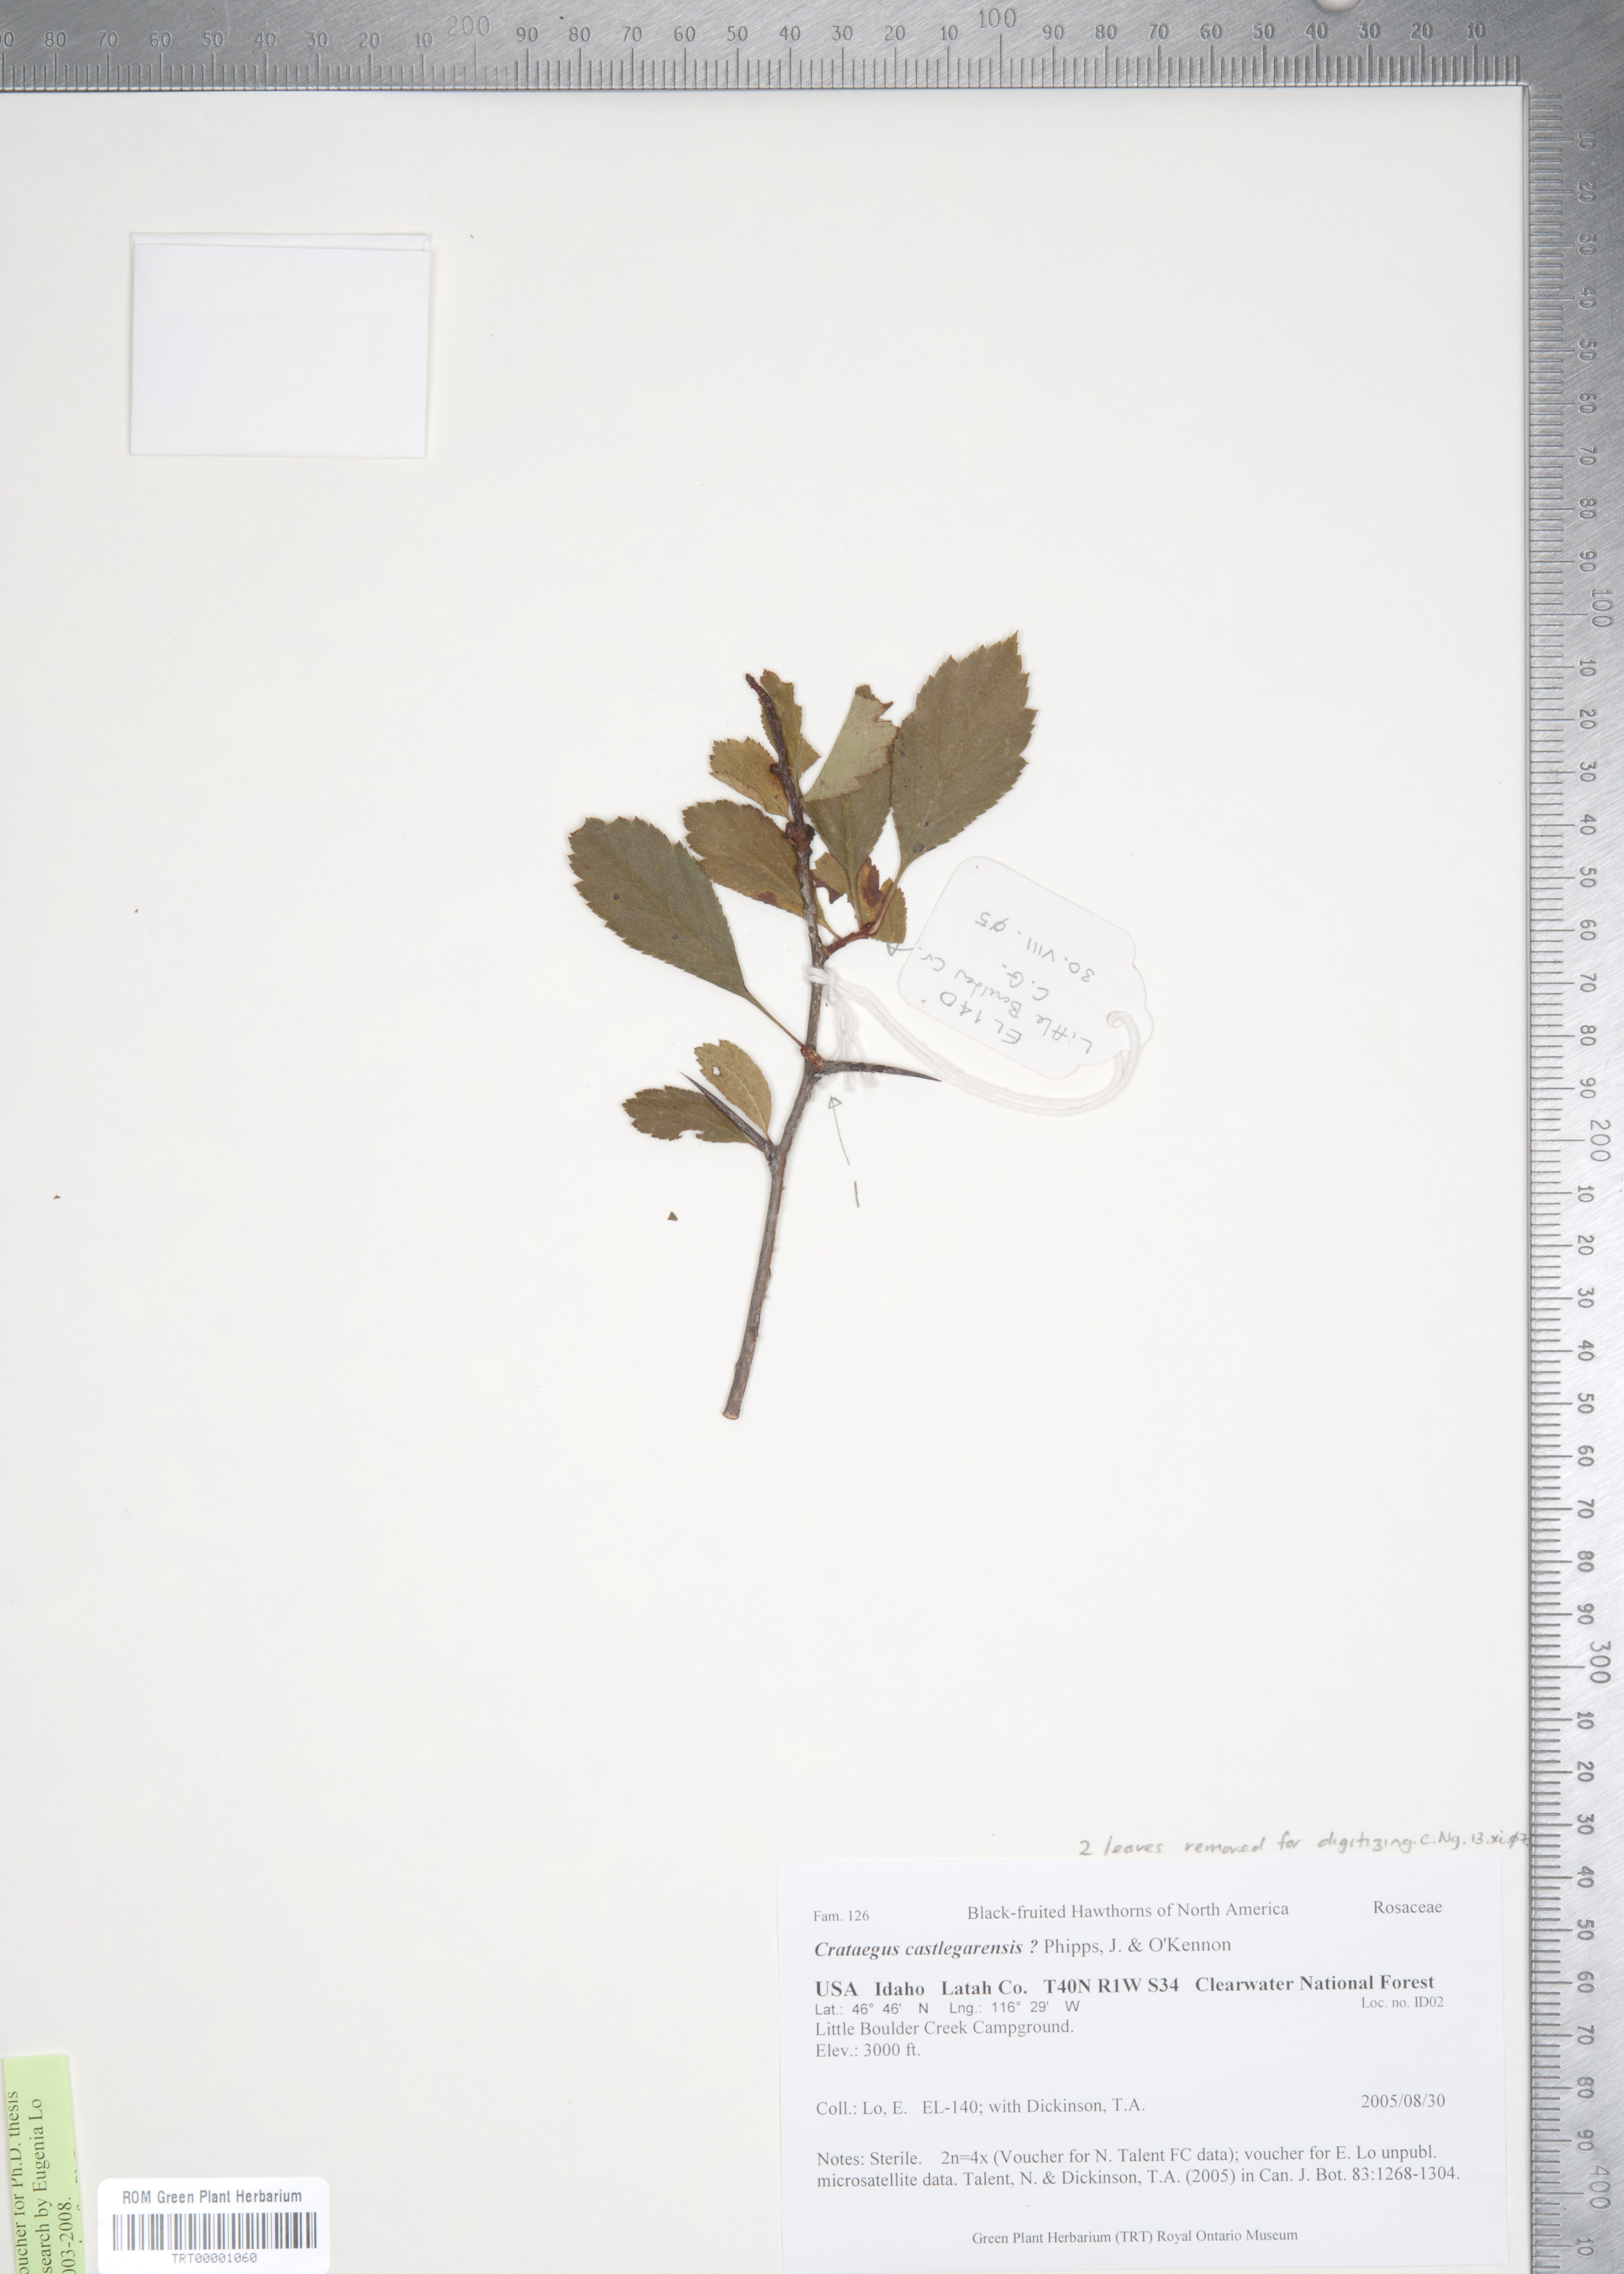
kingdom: Plantae
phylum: Tracheophyta
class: Magnoliopsida
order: Rosales
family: Rosaceae
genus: Crataegus
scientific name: Crataegus castlegarensis
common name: Castlegar hawthorn
